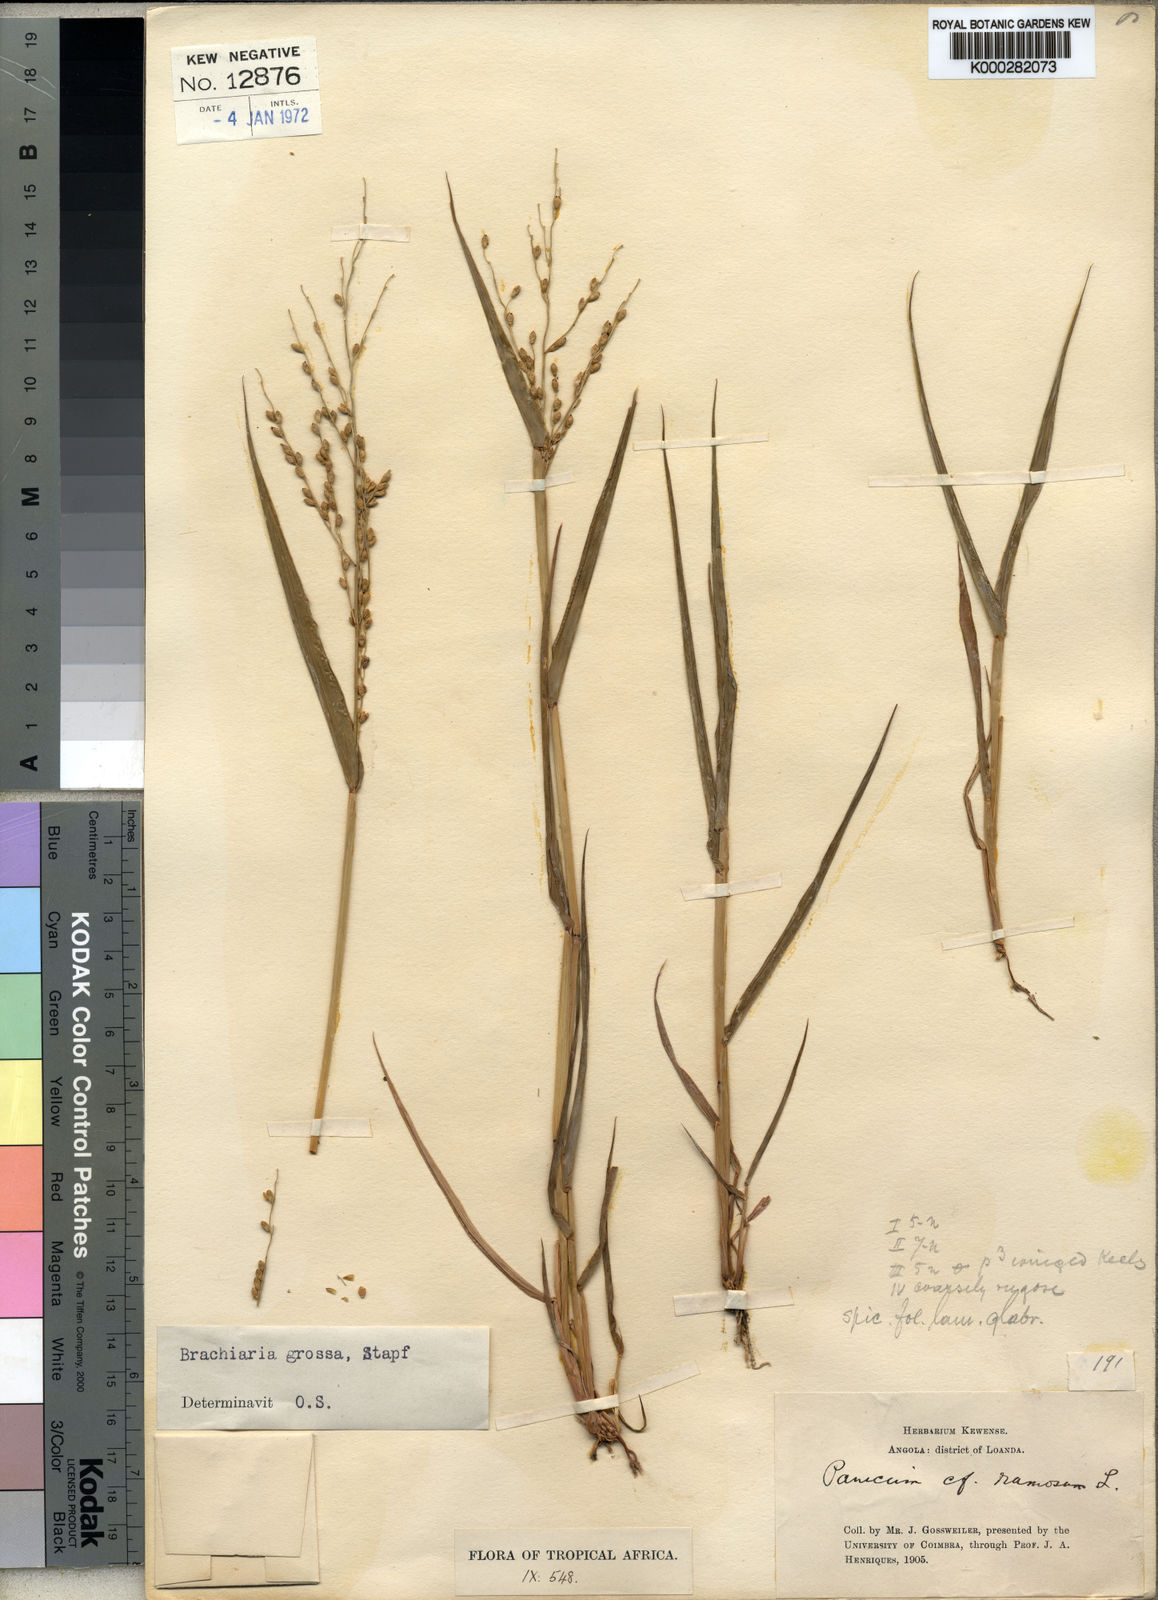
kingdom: Plantae
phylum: Tracheophyta
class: Liliopsida
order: Poales
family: Poaceae
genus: Urochloa
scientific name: Urochloa Brachiaria grossa
